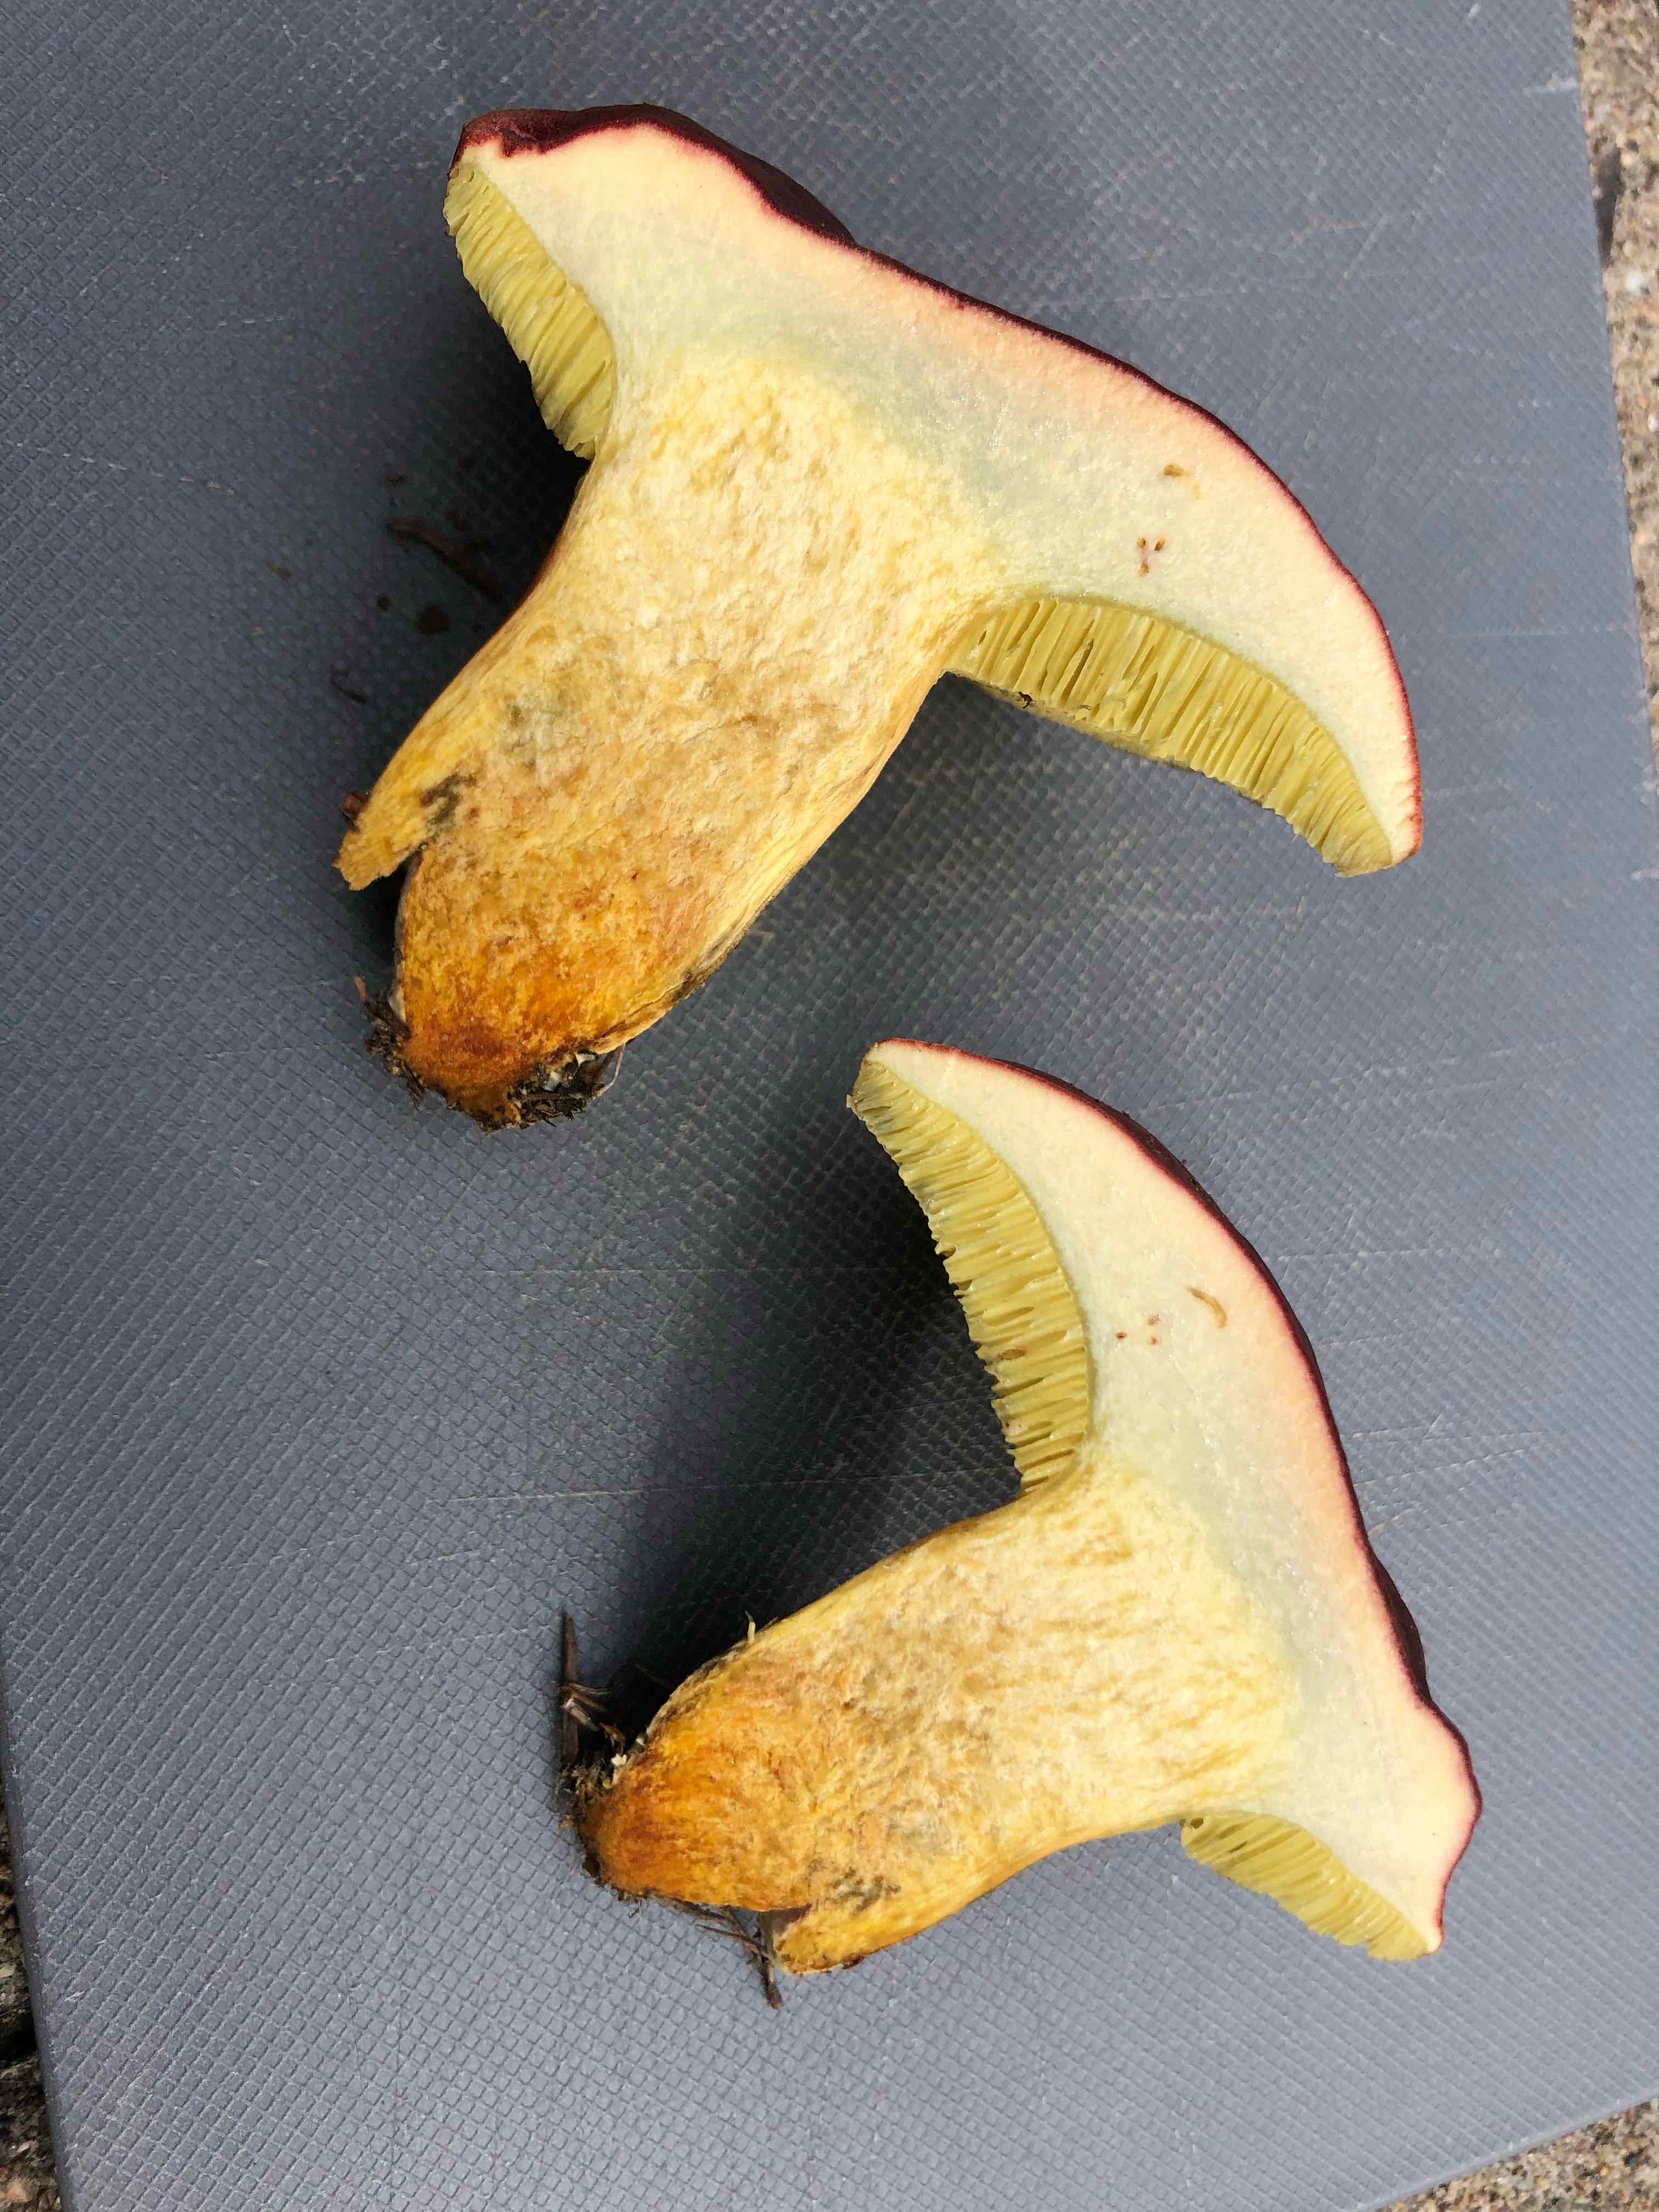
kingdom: Fungi
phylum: Basidiomycota
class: Agaricomycetes
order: Boletales
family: Boletaceae
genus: Hortiboletus
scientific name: Hortiboletus rubellus
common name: blodrød rørhat
